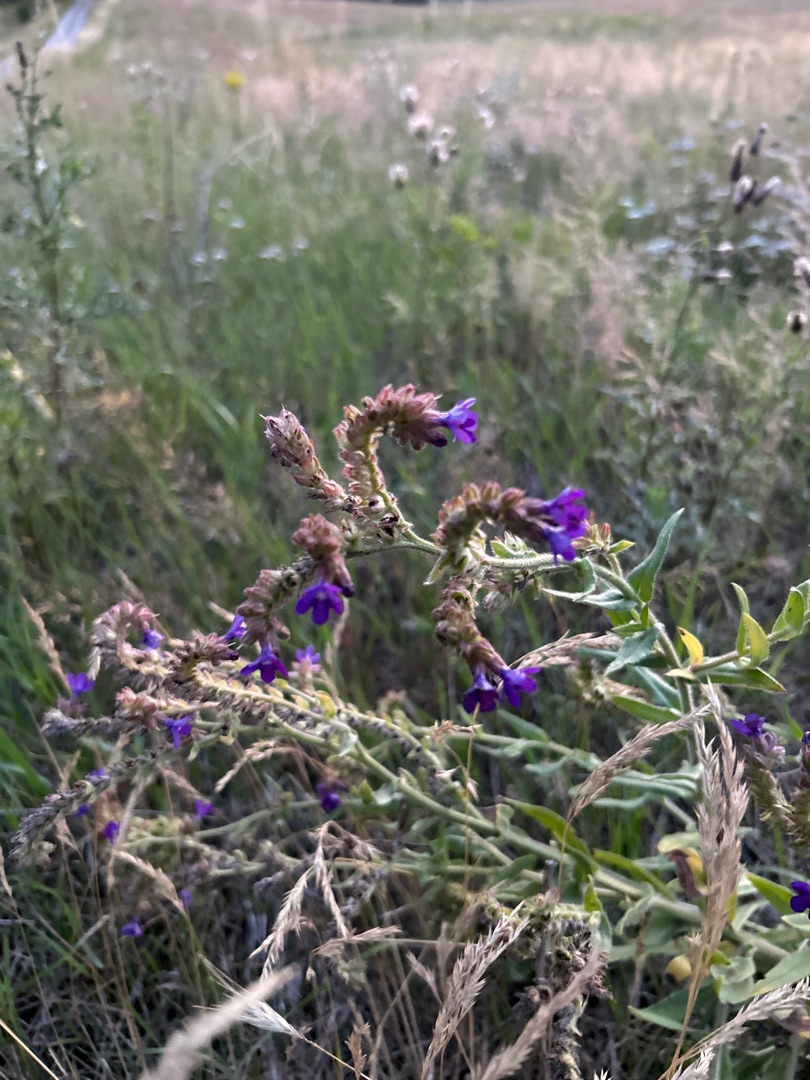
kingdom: Plantae
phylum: Tracheophyta
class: Magnoliopsida
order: Boraginales
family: Boraginaceae
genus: Anchusa
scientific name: Anchusa officinalis
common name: Læge-oksetunge
